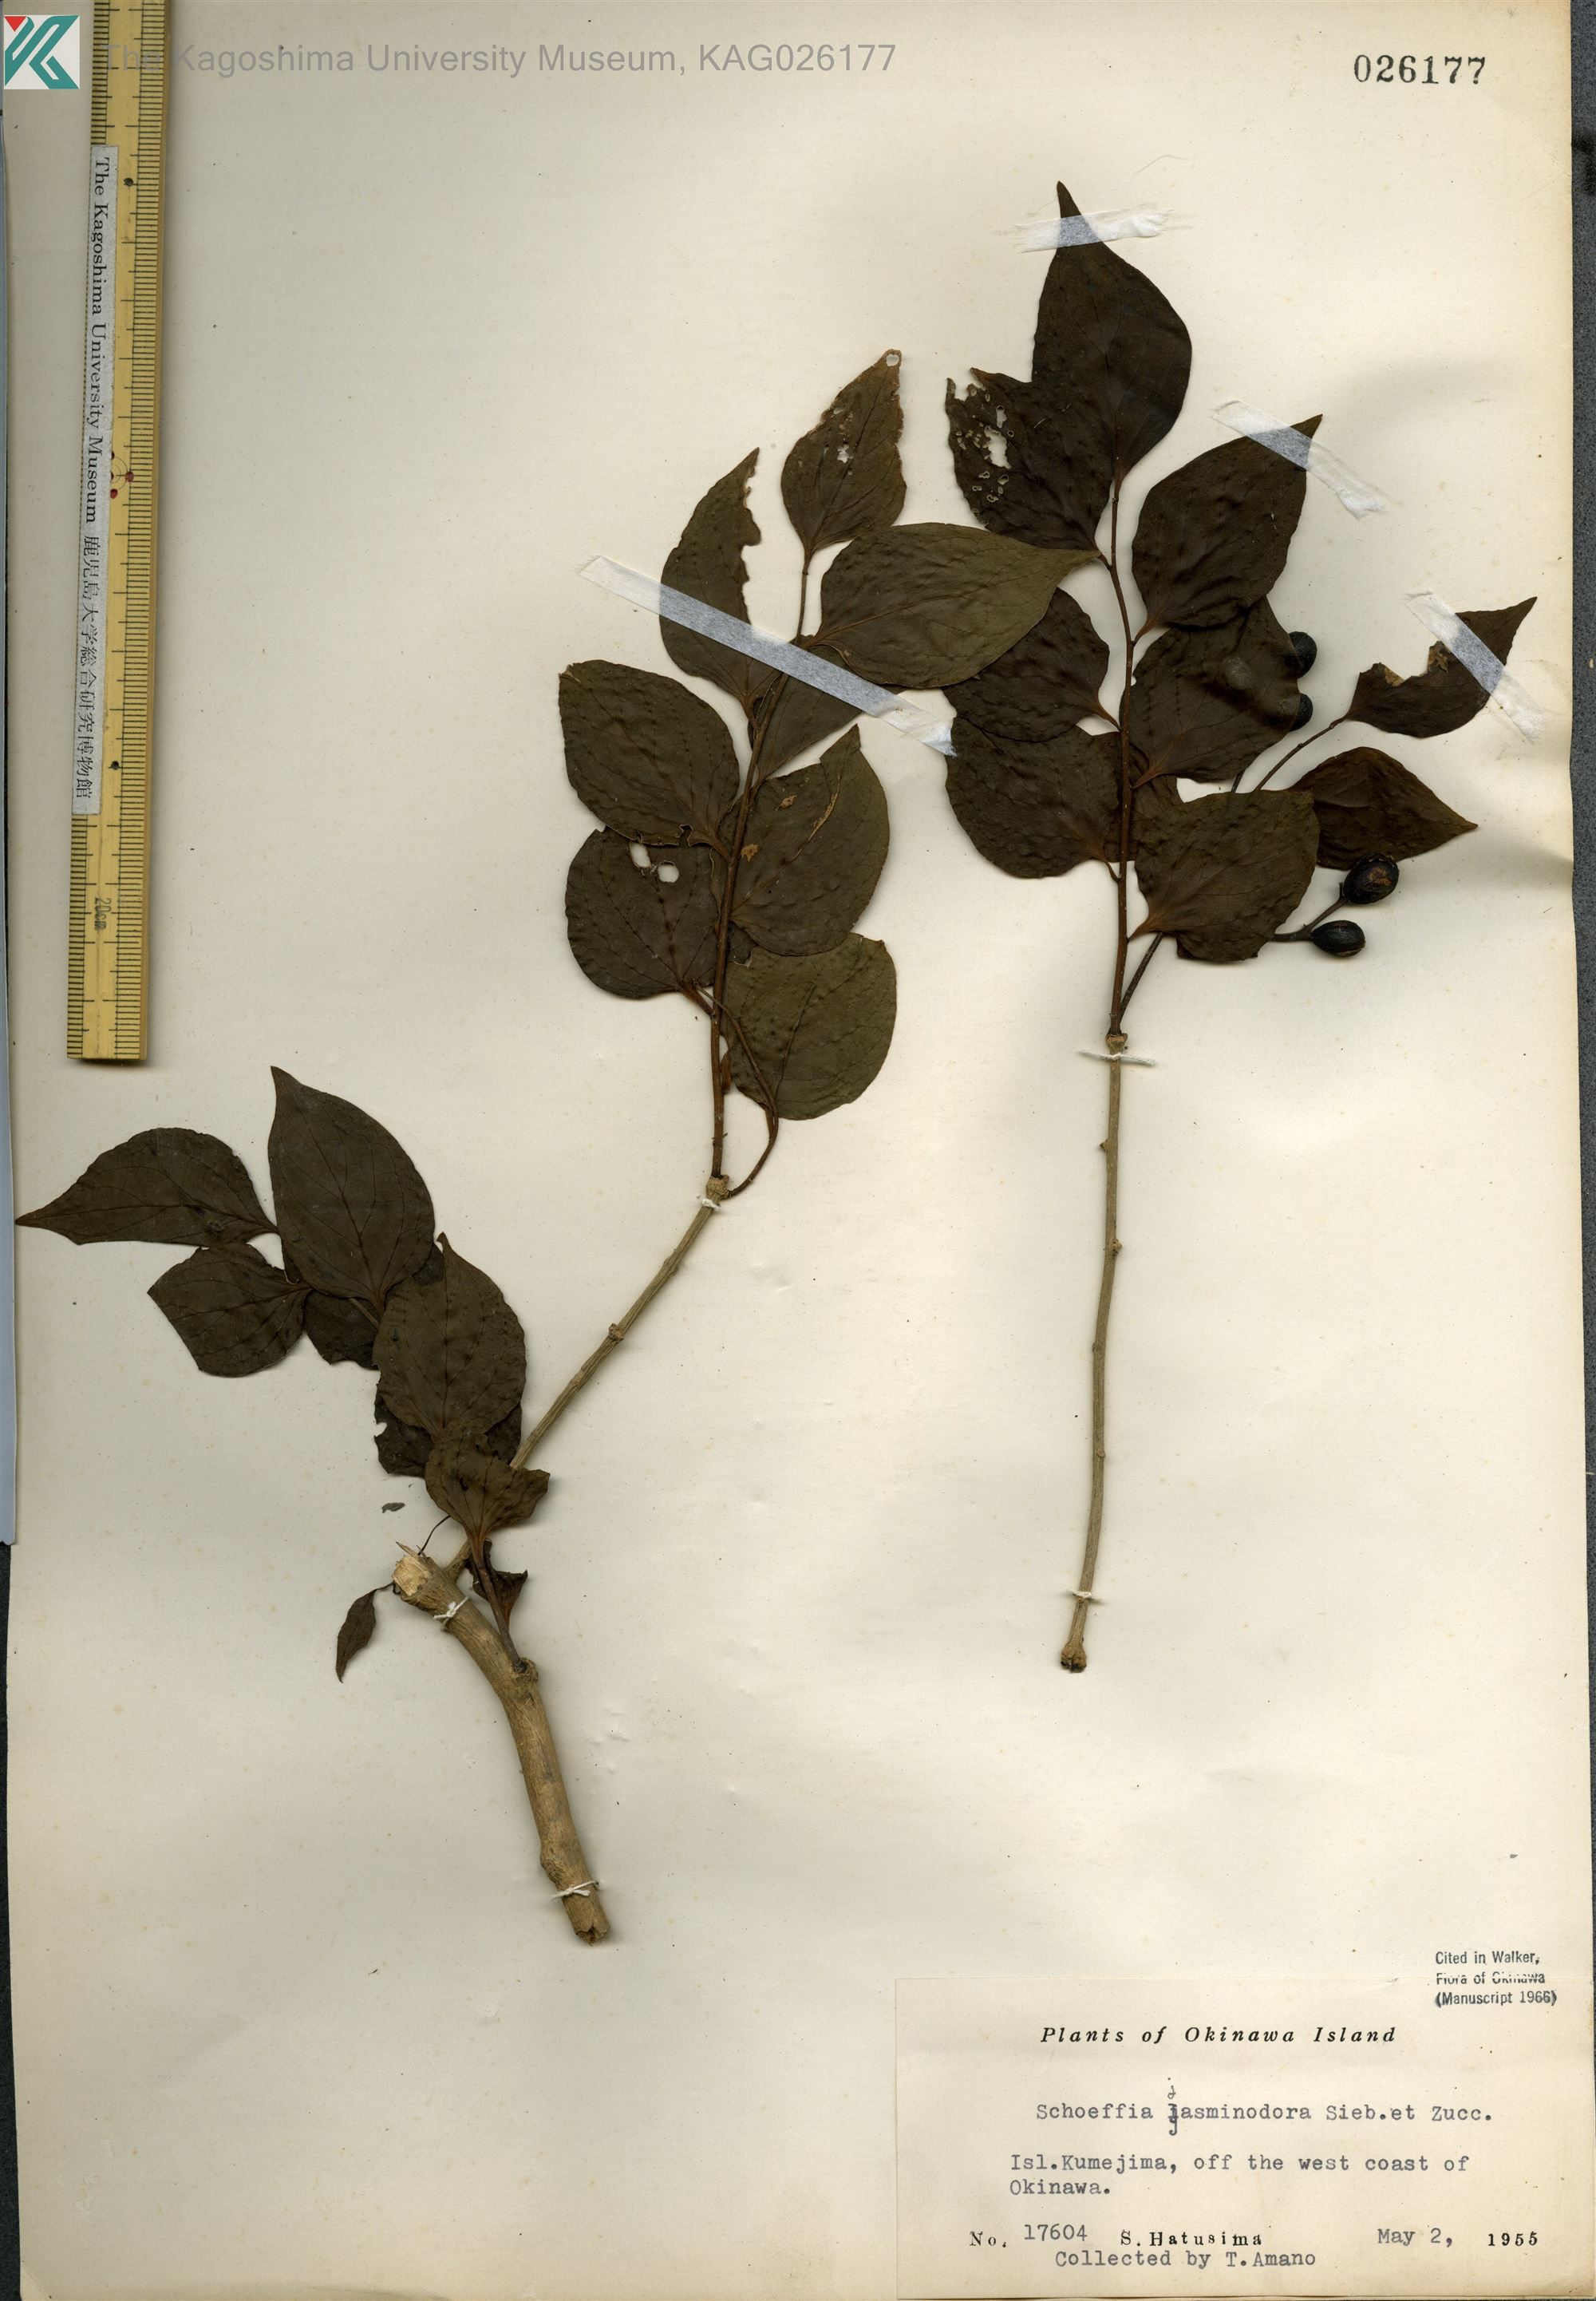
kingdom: Plantae
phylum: Tracheophyta
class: Magnoliopsida
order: Santalales
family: Schoepfiaceae
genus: Schoepfia
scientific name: Schoepfia jasminodora
